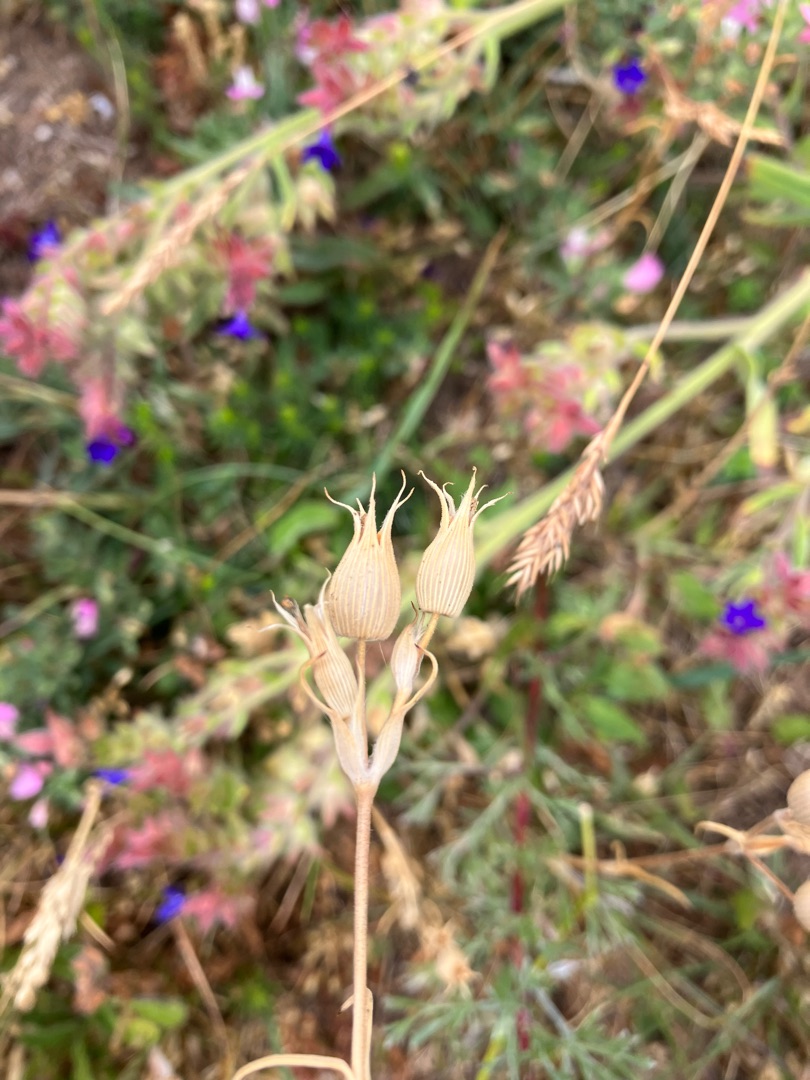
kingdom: Plantae
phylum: Tracheophyta
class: Magnoliopsida
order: Caryophyllales
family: Caryophyllaceae
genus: Silene
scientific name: Silene conica
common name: Kegle-limurt
